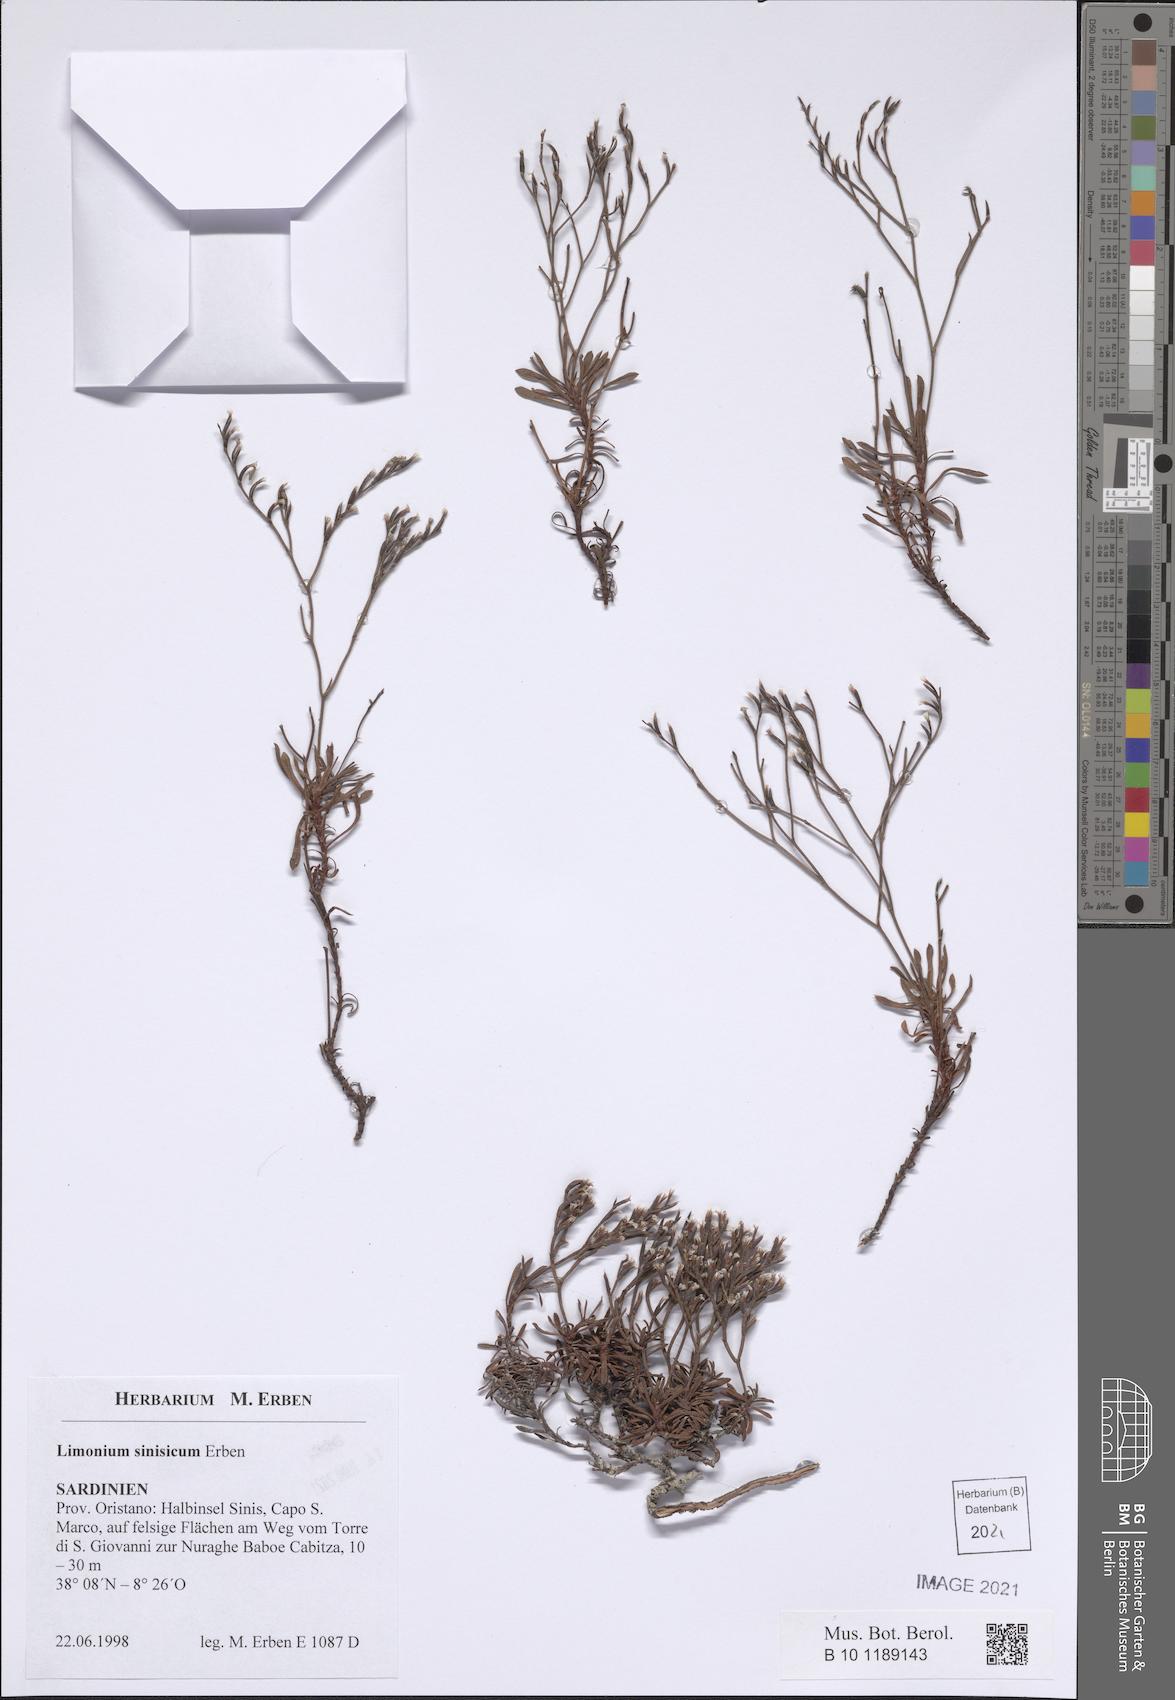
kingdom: Plantae
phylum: Tracheophyta
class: Magnoliopsida
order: Caryophyllales
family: Plumbaginaceae
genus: Limonium
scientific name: Limonium acutifolium
